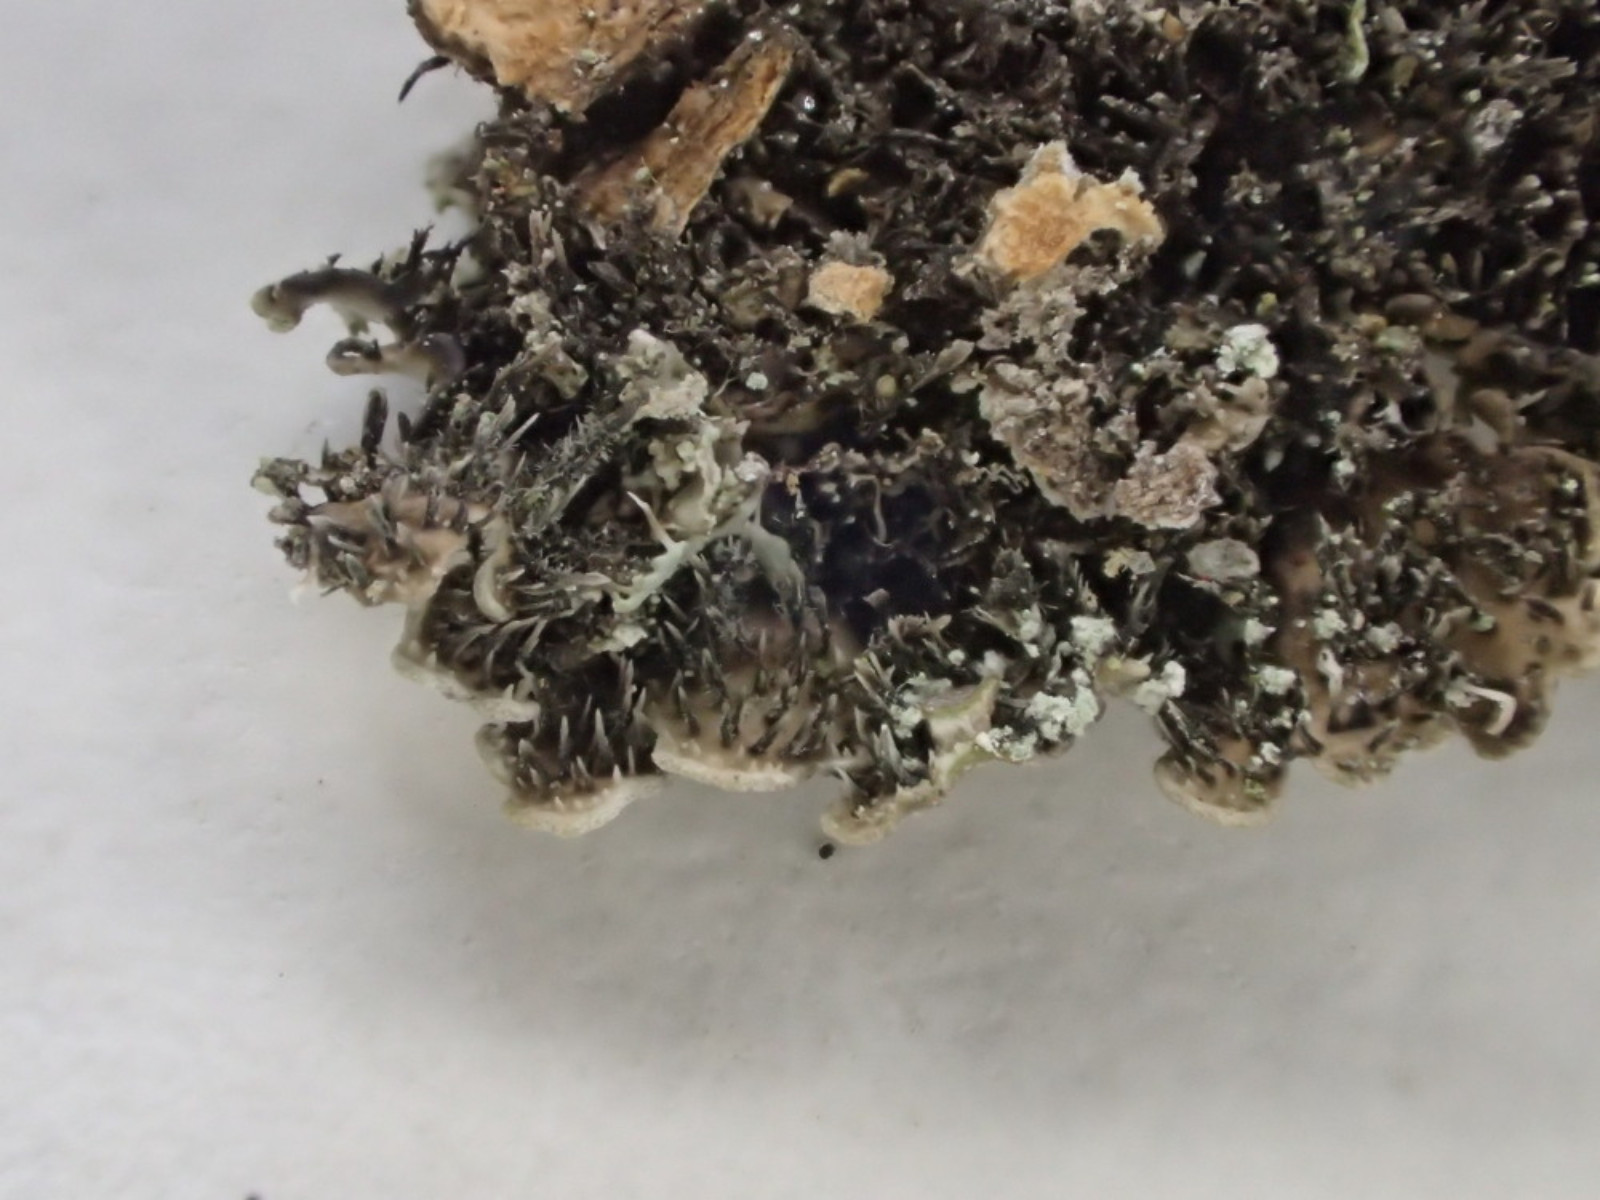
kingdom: Fungi
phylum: Ascomycota
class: Lecanoromycetes
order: Caliciales
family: Physciaceae
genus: Physconia
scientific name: Physconia enteroxantha
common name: grynet dugrosetlav
